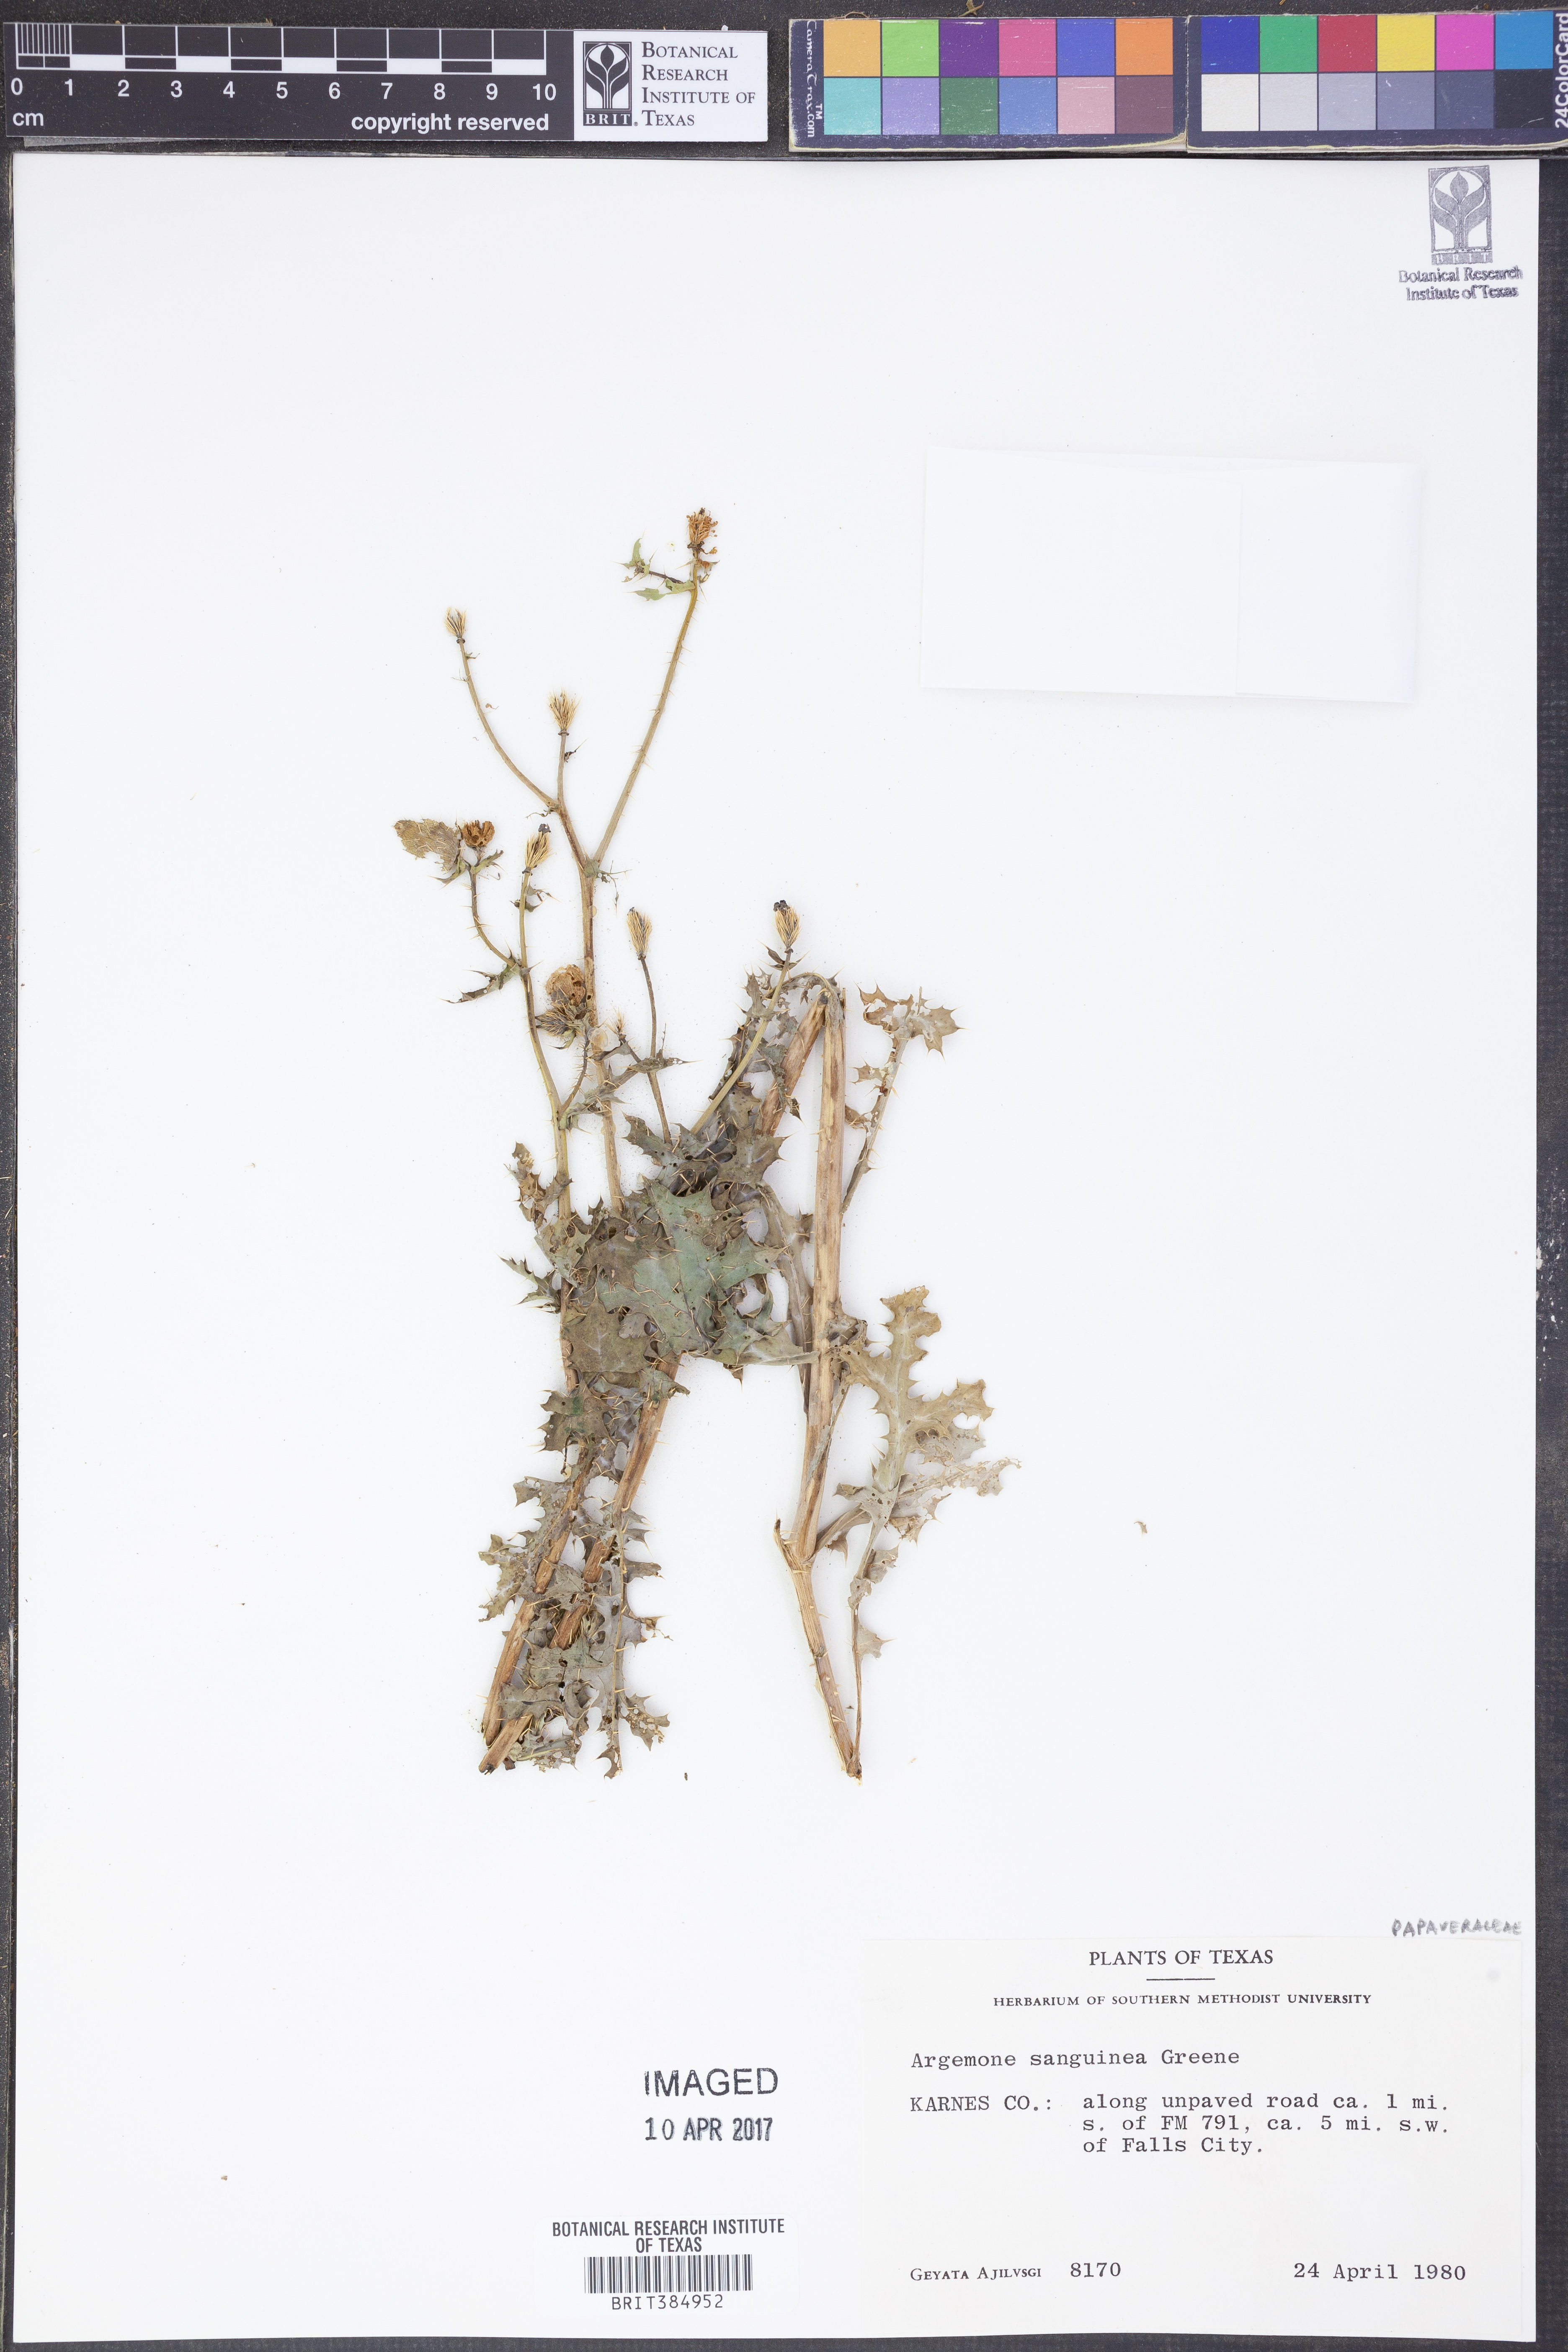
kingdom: Plantae
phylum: Tracheophyta
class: Magnoliopsida
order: Ranunculales
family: Papaveraceae
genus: Argemone
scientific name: Argemone sanguinea
